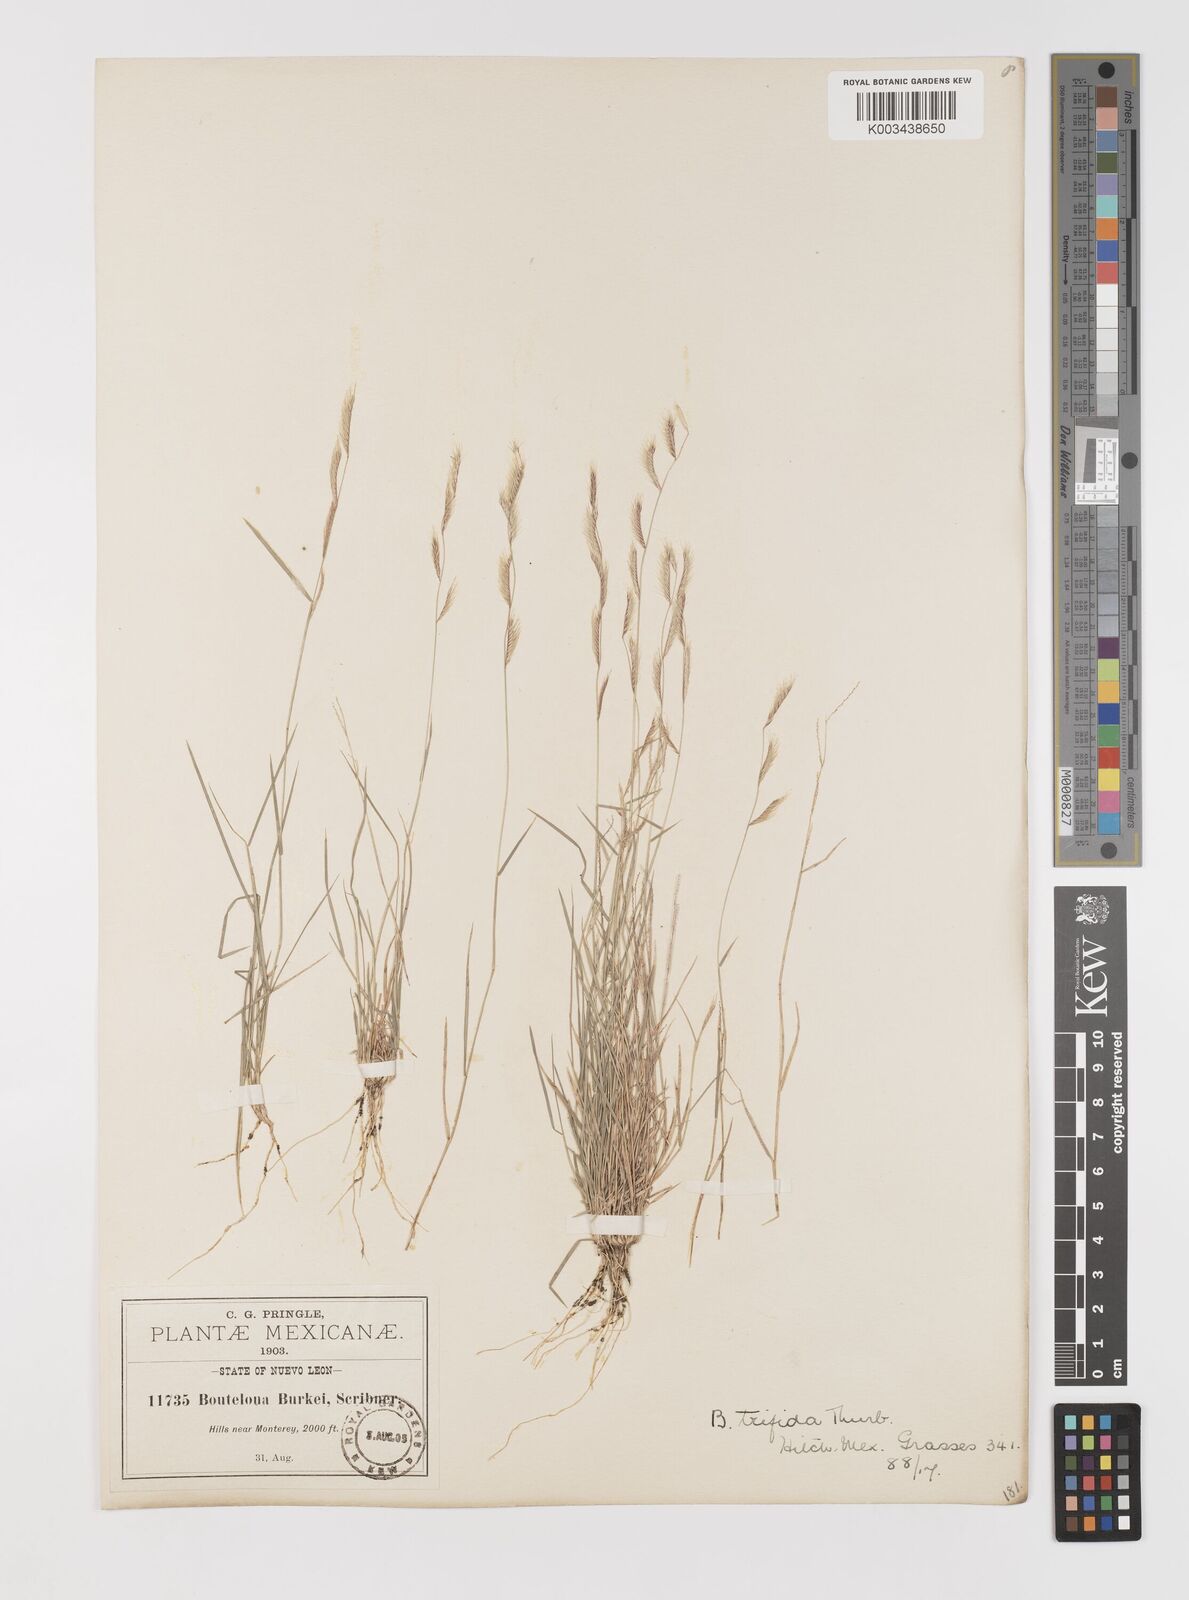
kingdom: Plantae
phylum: Tracheophyta
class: Liliopsida
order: Poales
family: Poaceae
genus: Bouteloua
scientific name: Bouteloua
